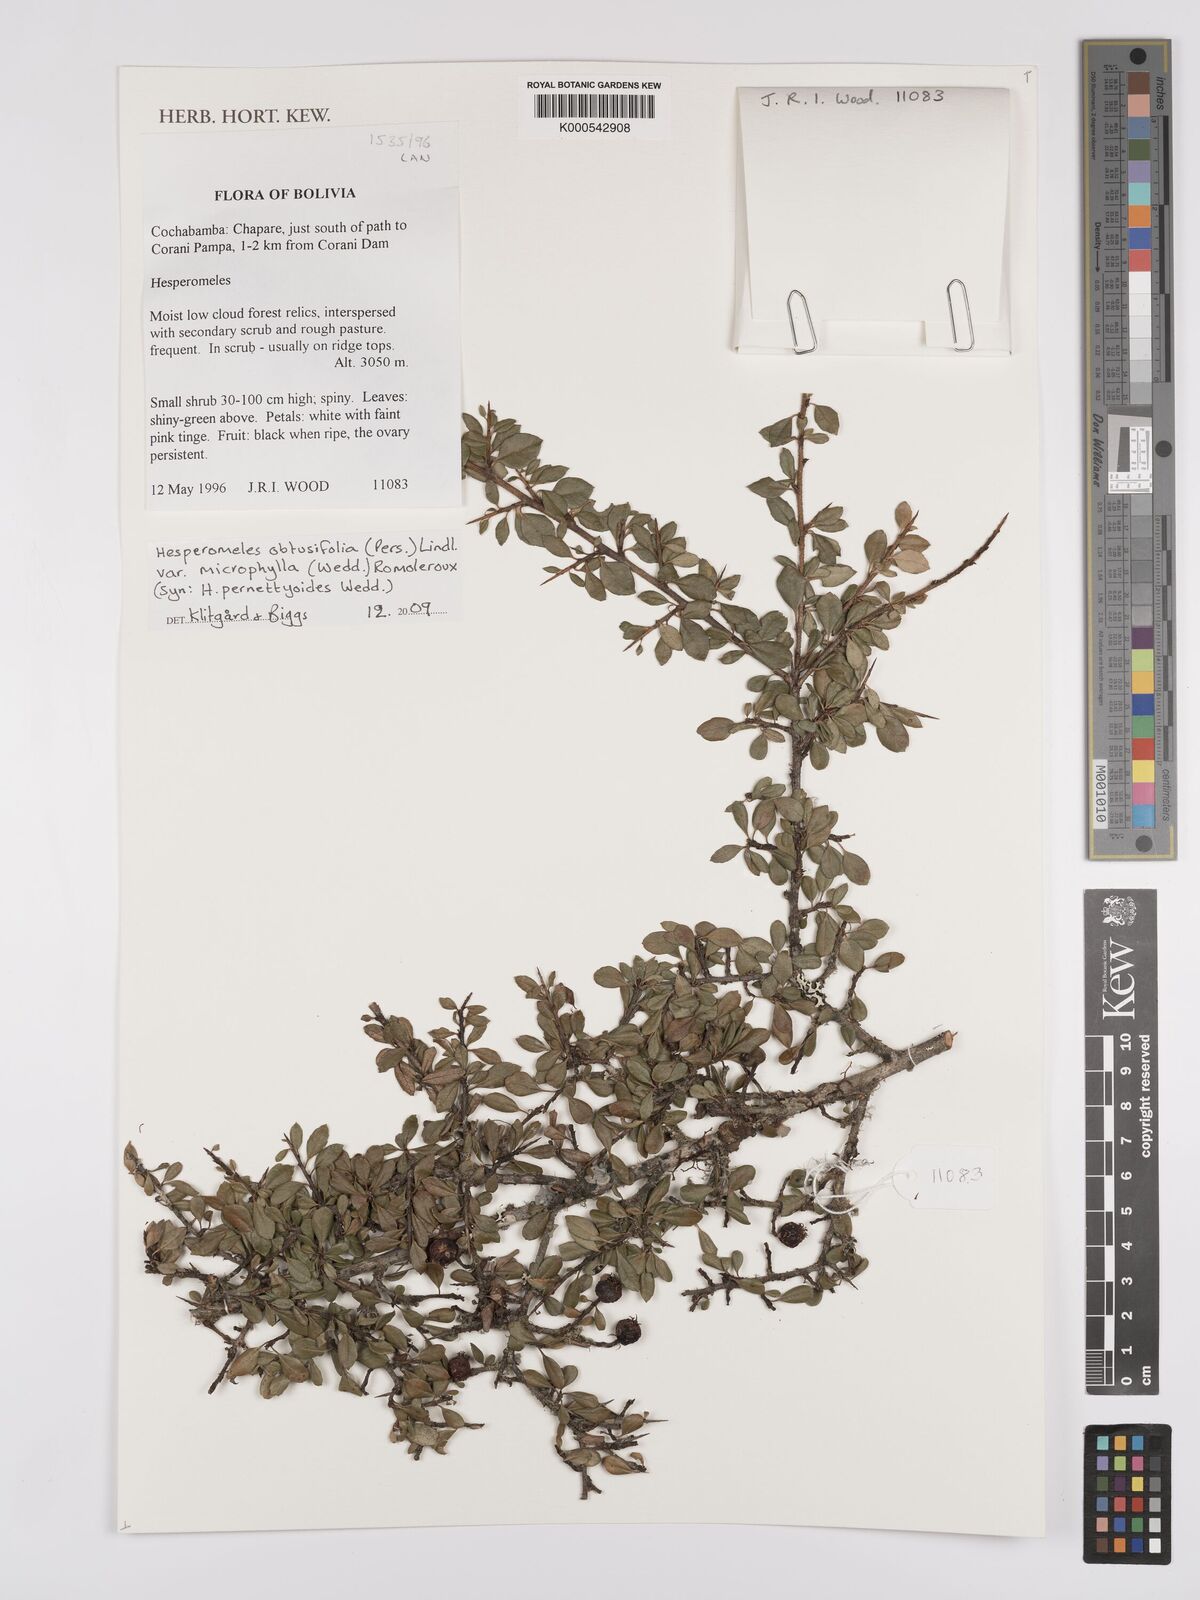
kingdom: Plantae
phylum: Tracheophyta
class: Magnoliopsida
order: Rosales
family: Rosaceae
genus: Hesperomeles
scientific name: Hesperomeles obtusifolia
